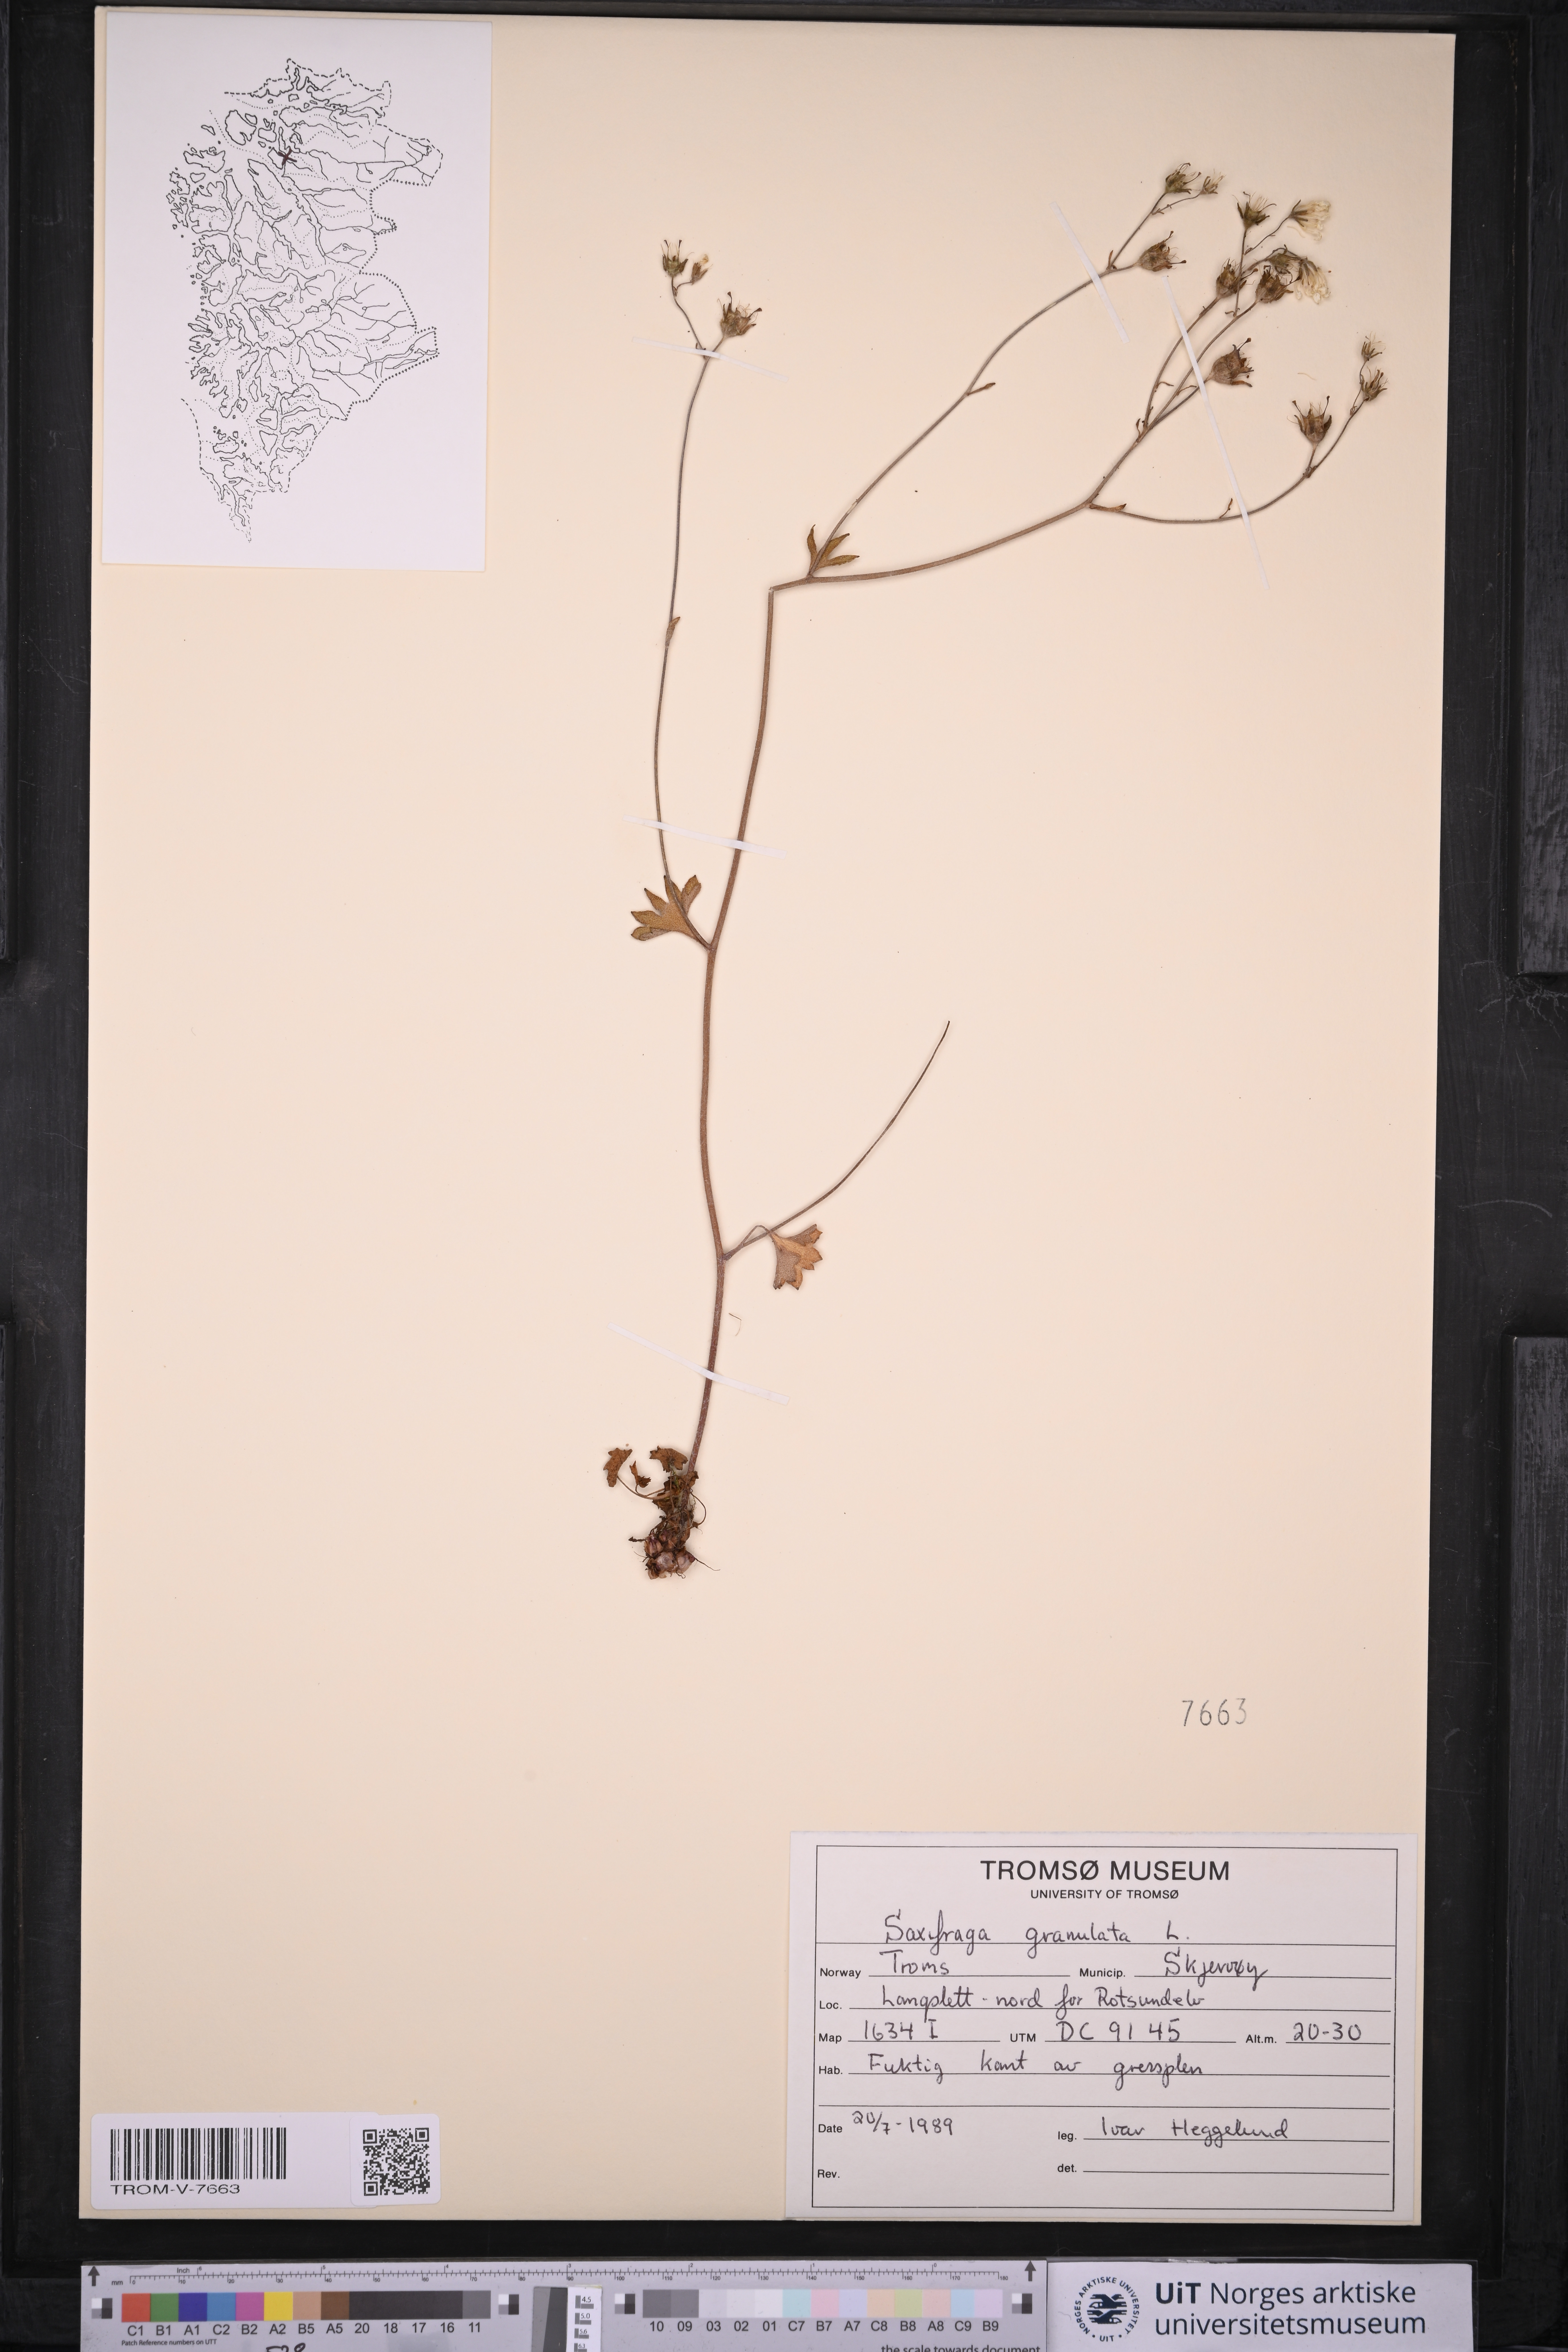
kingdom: Plantae
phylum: Tracheophyta
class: Magnoliopsida
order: Saxifragales
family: Saxifragaceae
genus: Saxifraga
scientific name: Saxifraga granulata
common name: Meadow saxifrage
